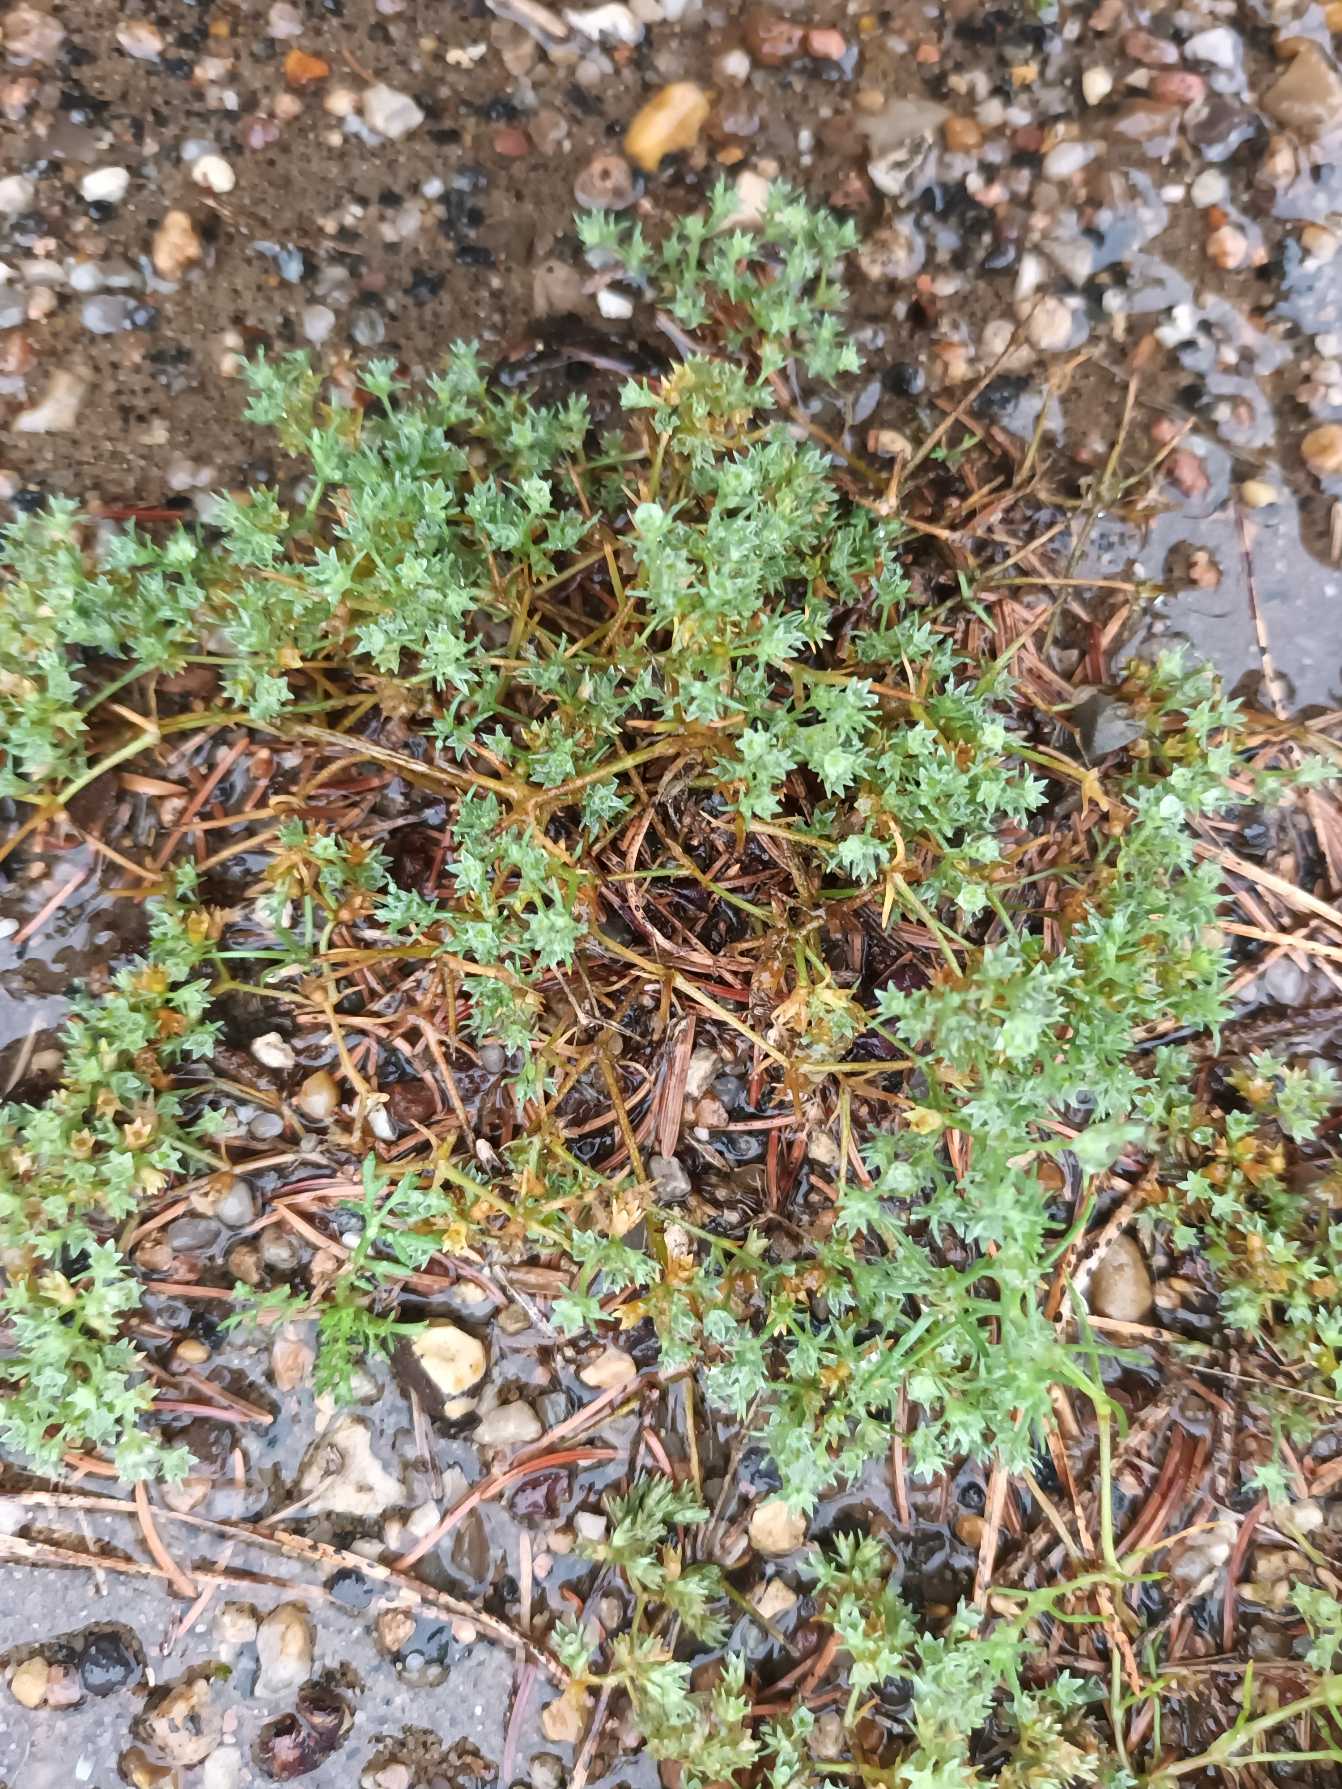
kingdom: Plantae
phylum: Tracheophyta
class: Magnoliopsida
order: Caryophyllales
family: Caryophyllaceae
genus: Scleranthus
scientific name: Scleranthus annuus
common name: Enårig knavel
